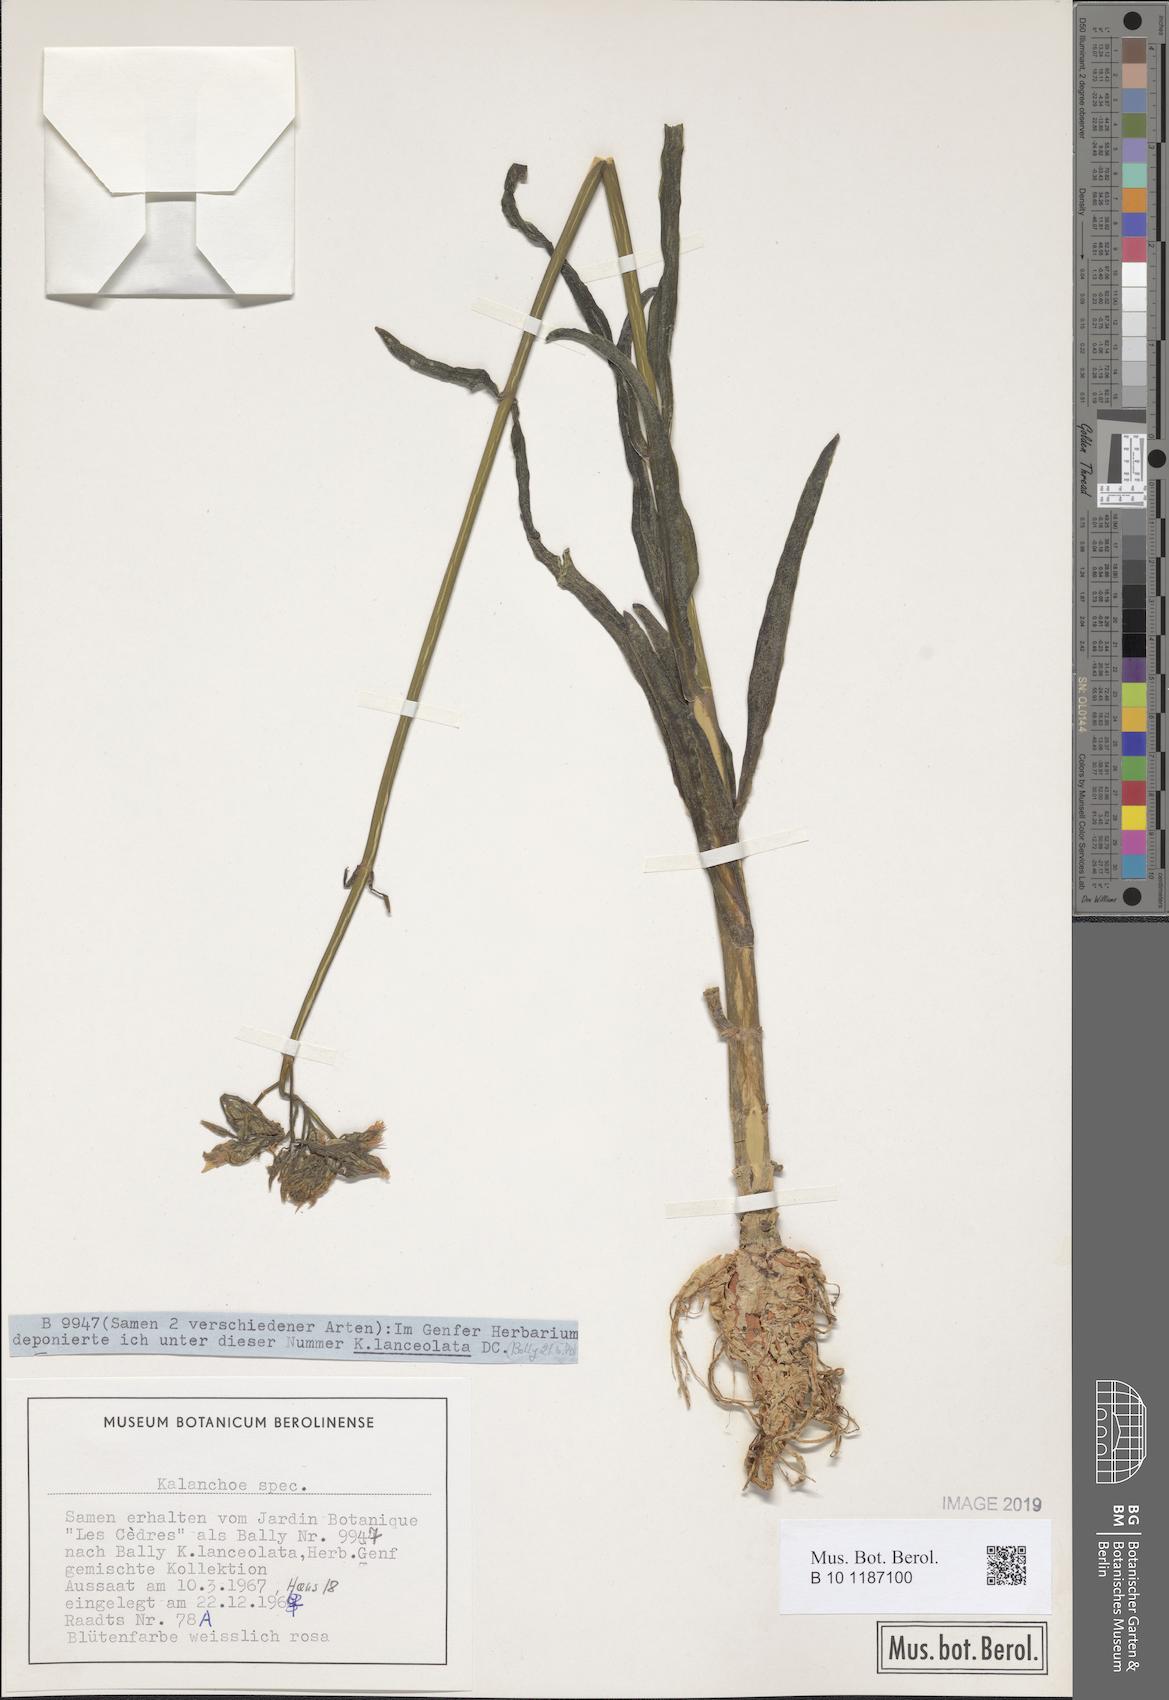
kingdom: Plantae
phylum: Tracheophyta
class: Magnoliopsida
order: Saxifragales
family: Crassulaceae
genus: Kalanchoe
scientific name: Kalanchoe
